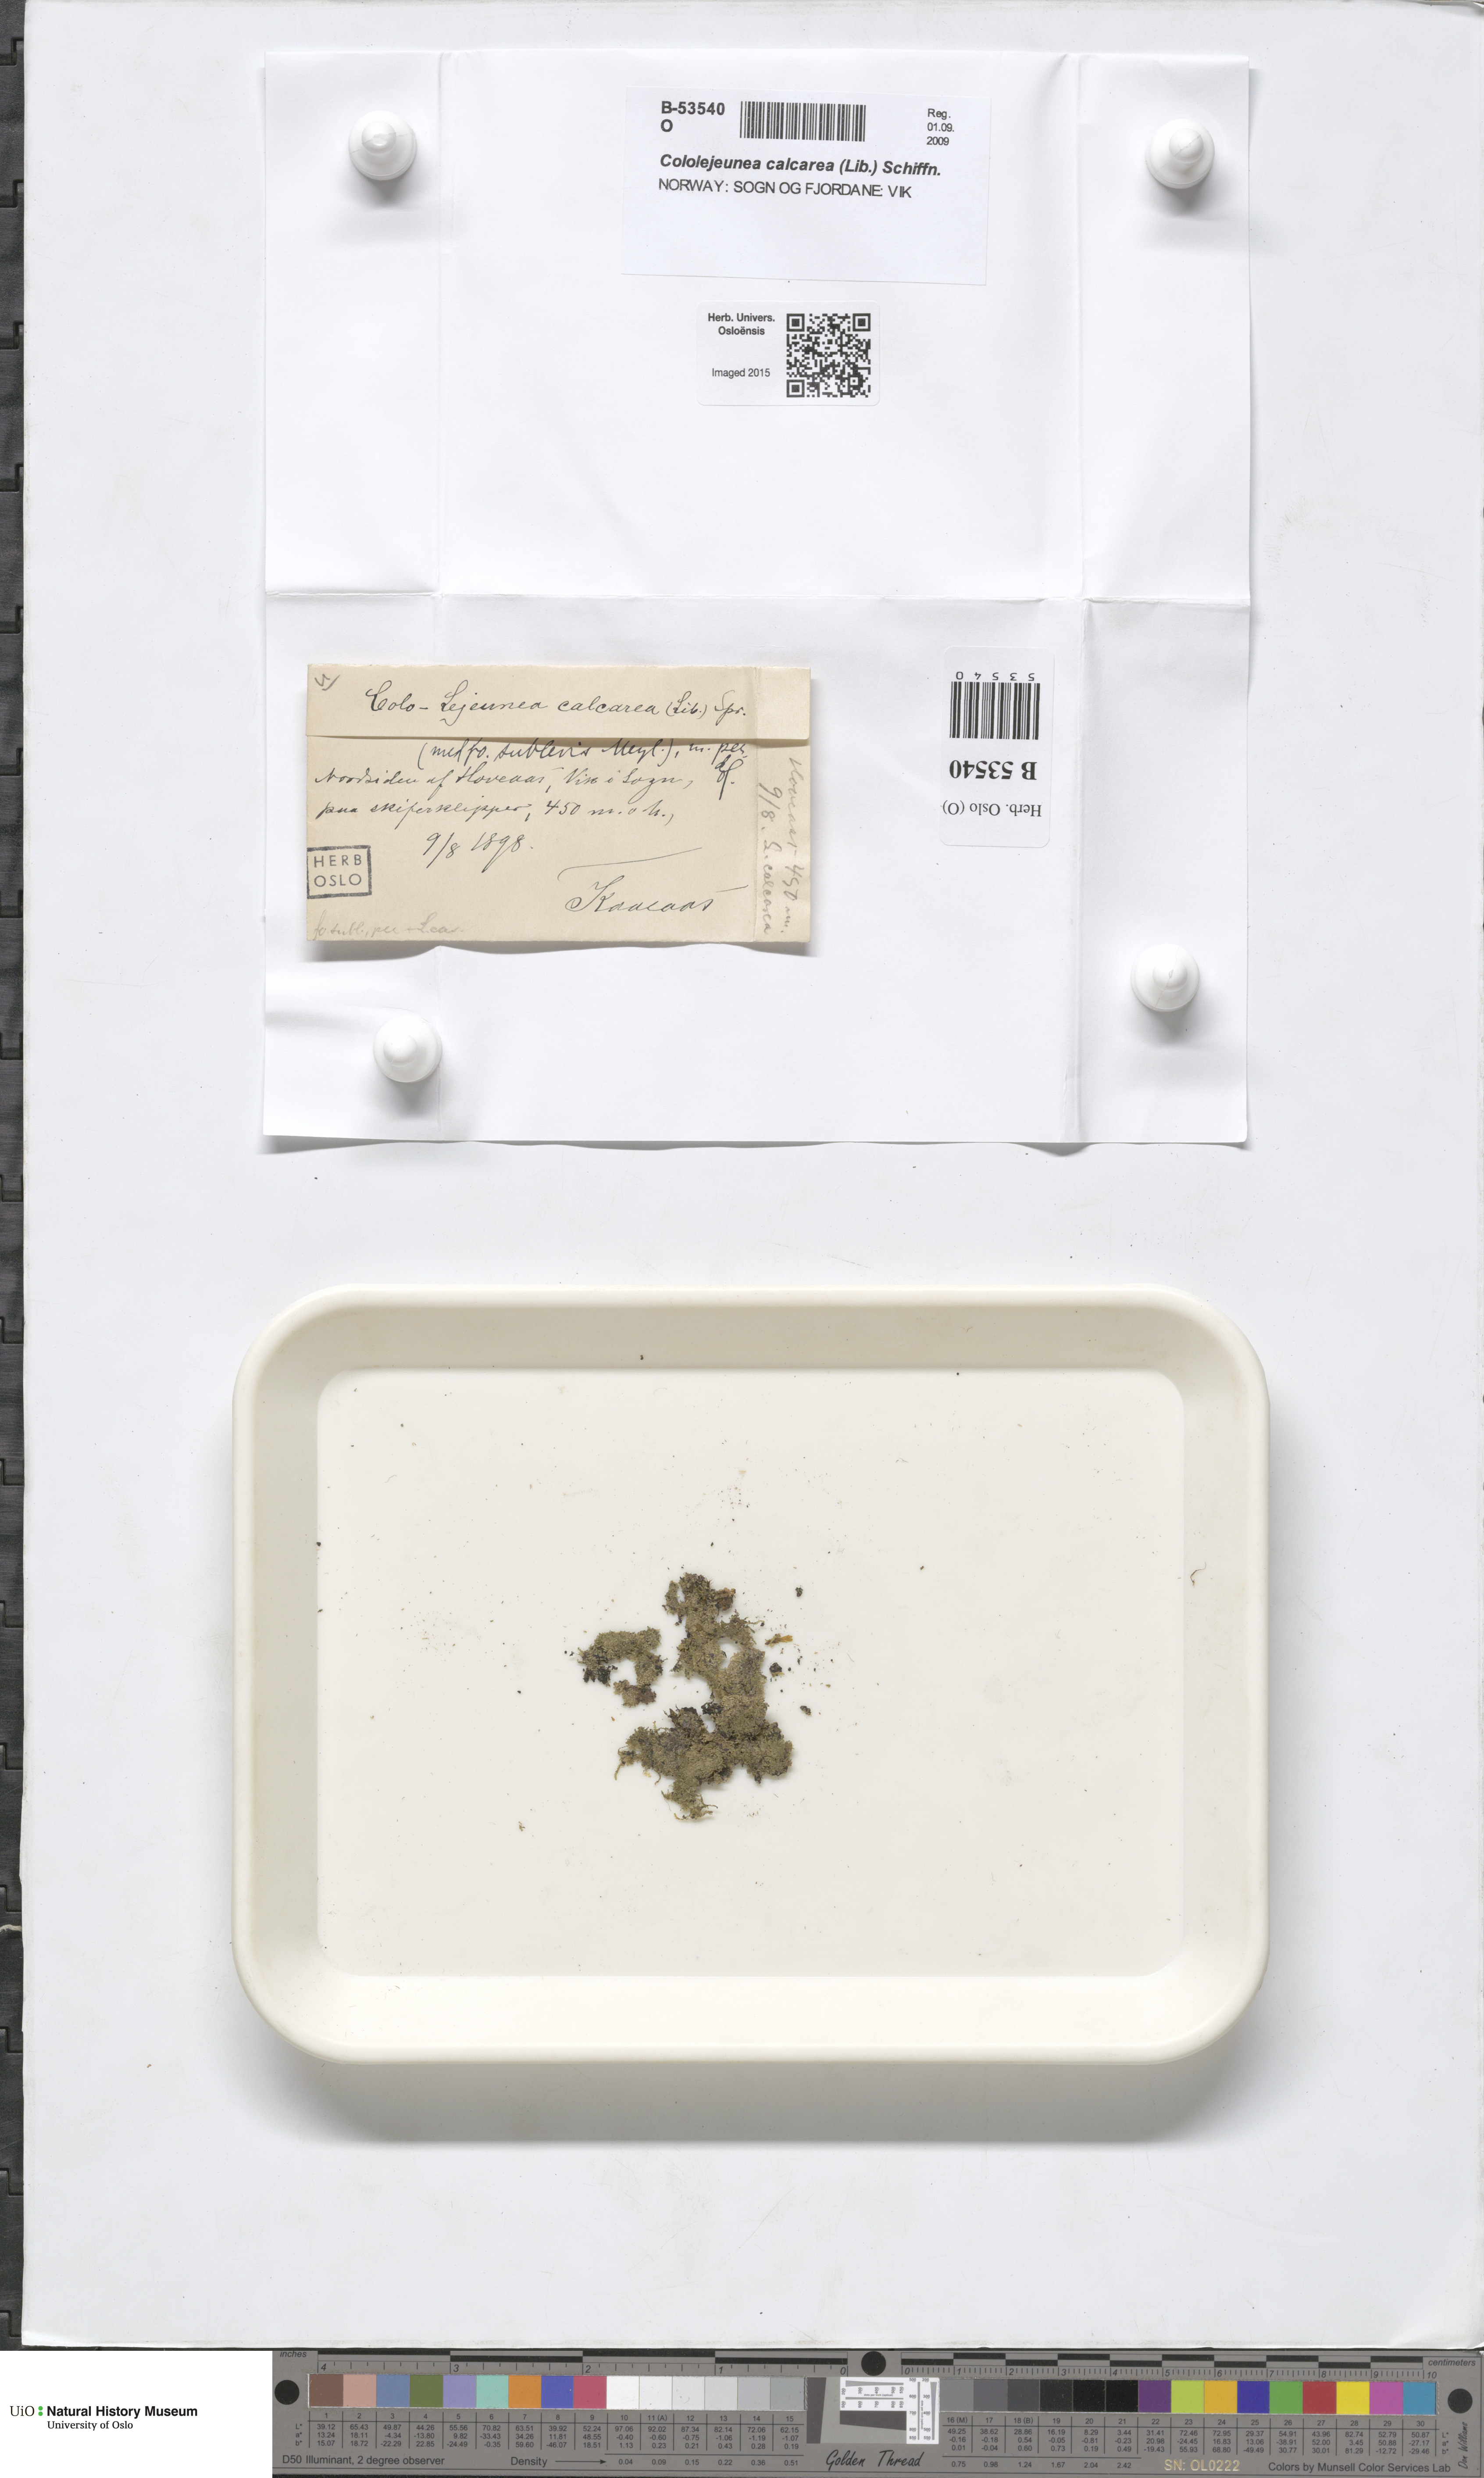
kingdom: Plantae
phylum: Marchantiophyta
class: Jungermanniopsida
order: Porellales
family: Lejeuneaceae
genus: Cololejeunea
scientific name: Cololejeunea calcarea
